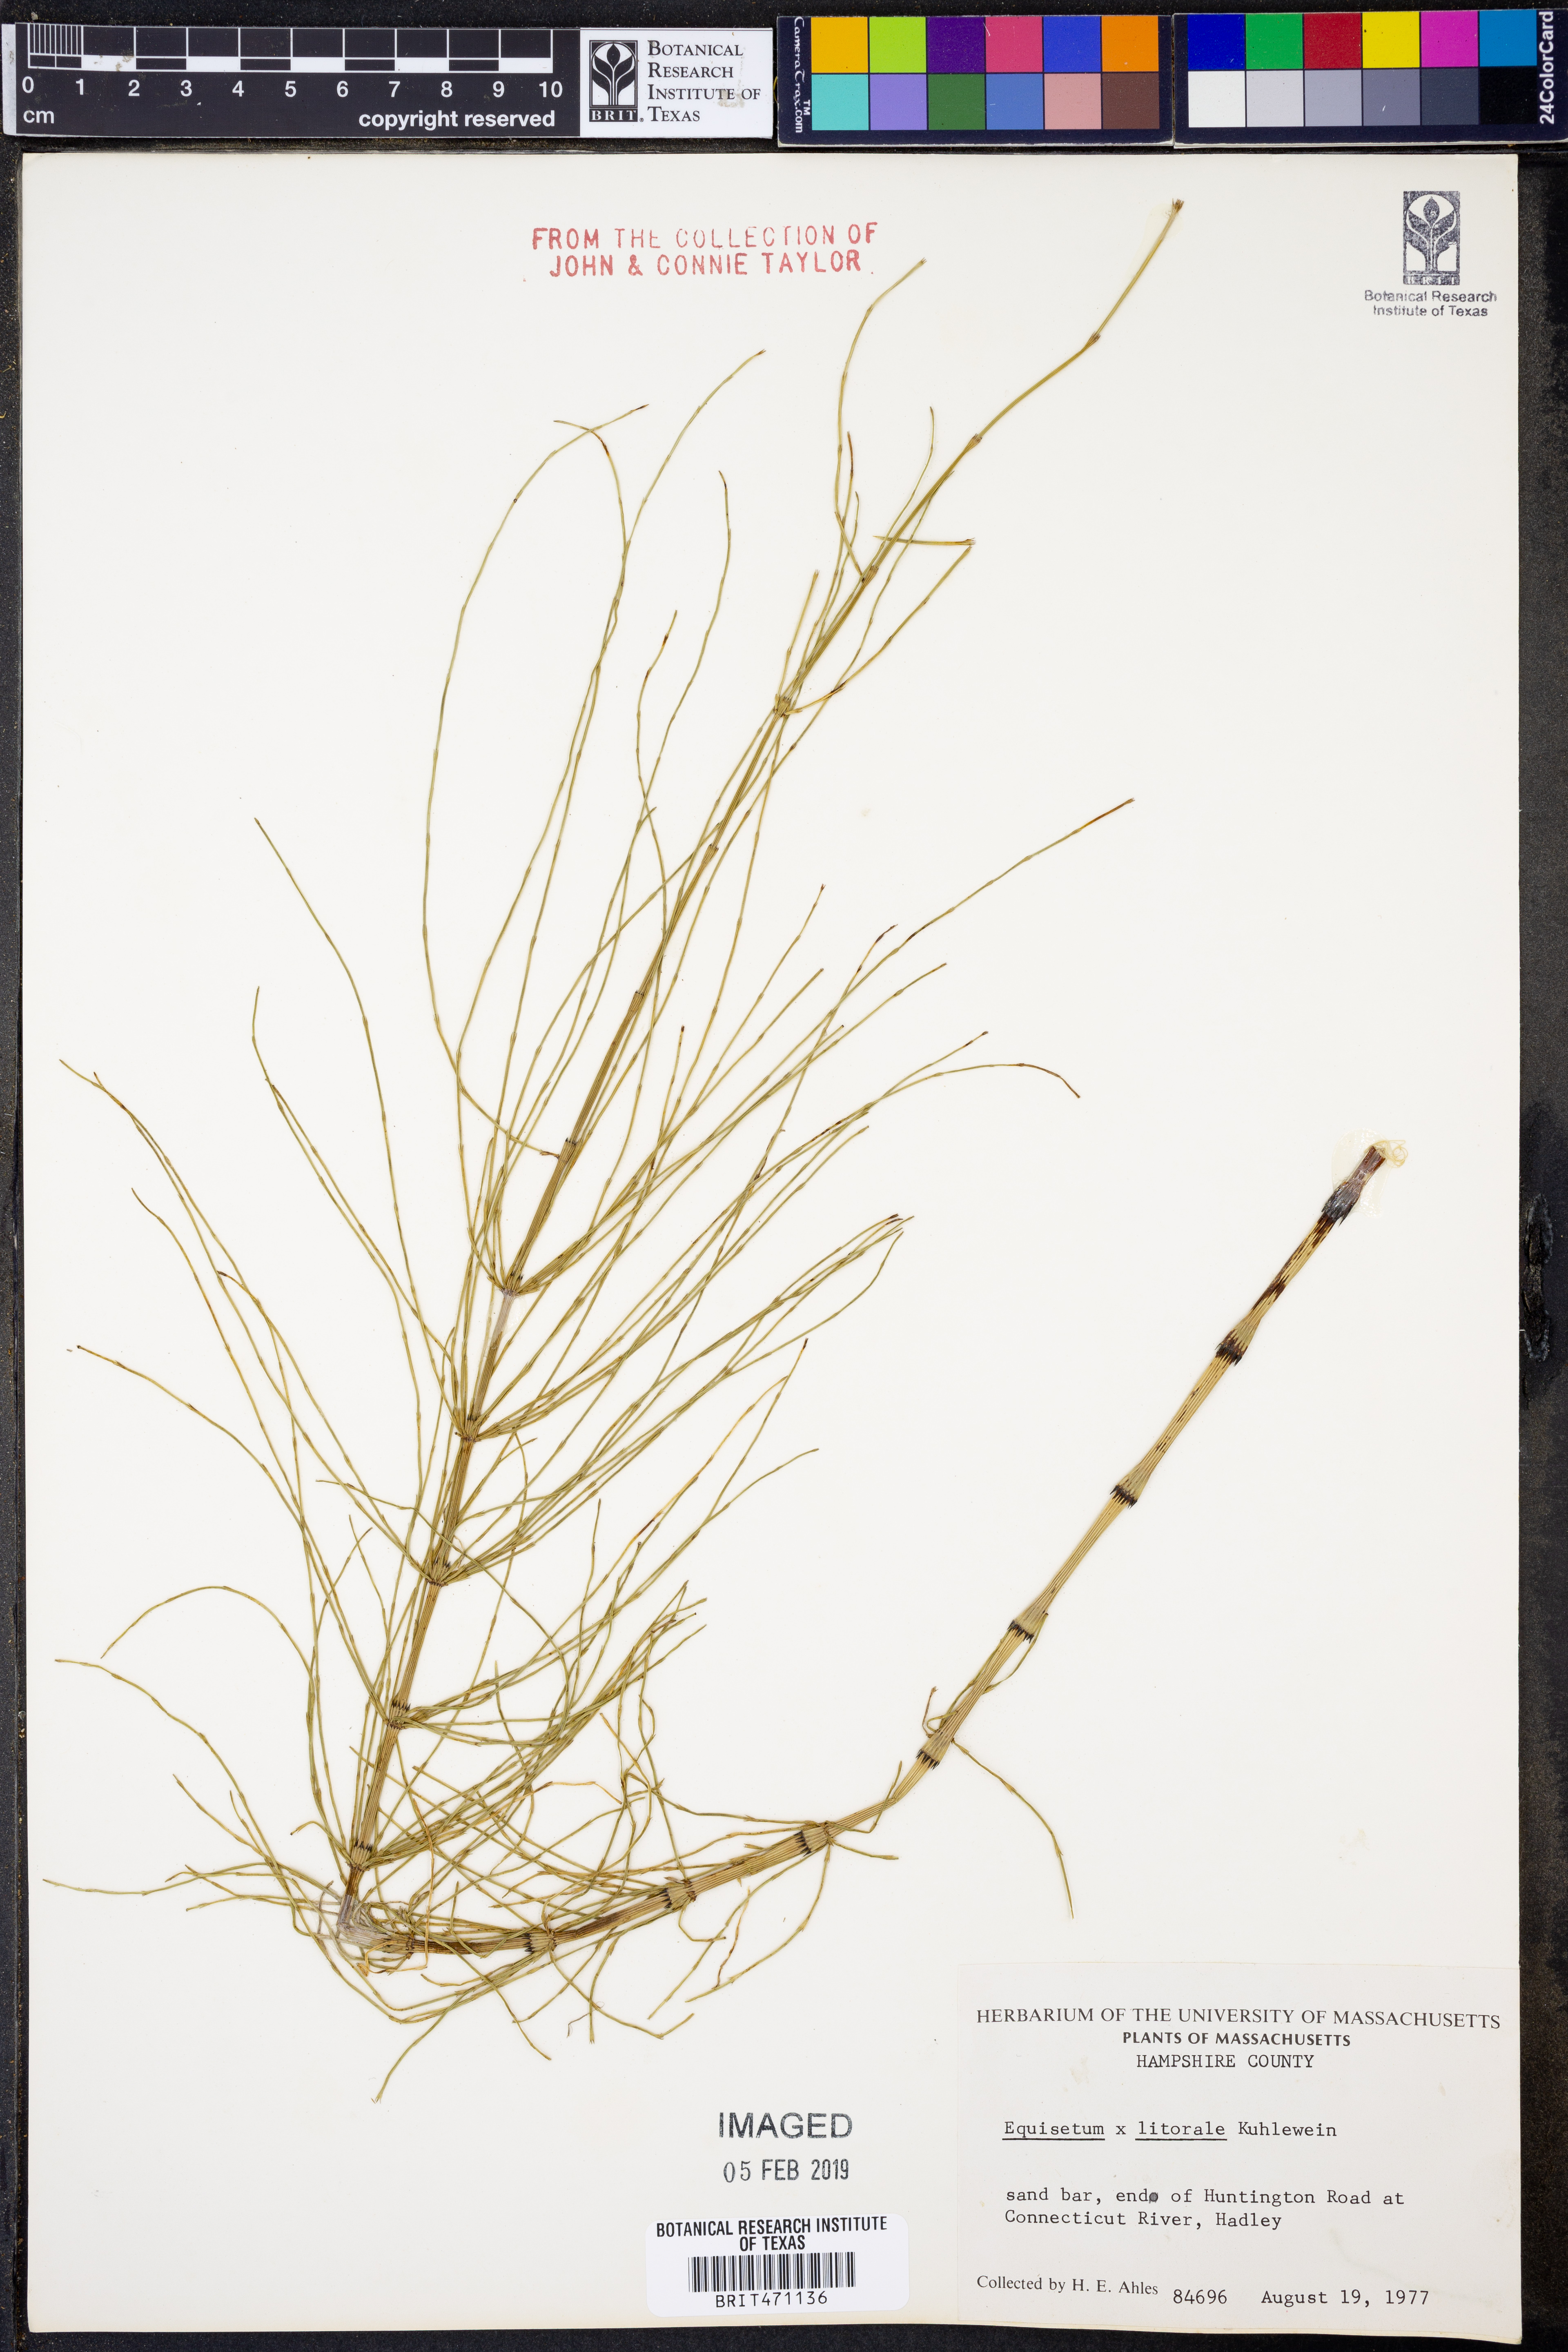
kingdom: Plantae
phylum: Tracheophyta
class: Polypodiopsida
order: Equisetales
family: Equisetaceae
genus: Equisetum
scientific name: Equisetum
